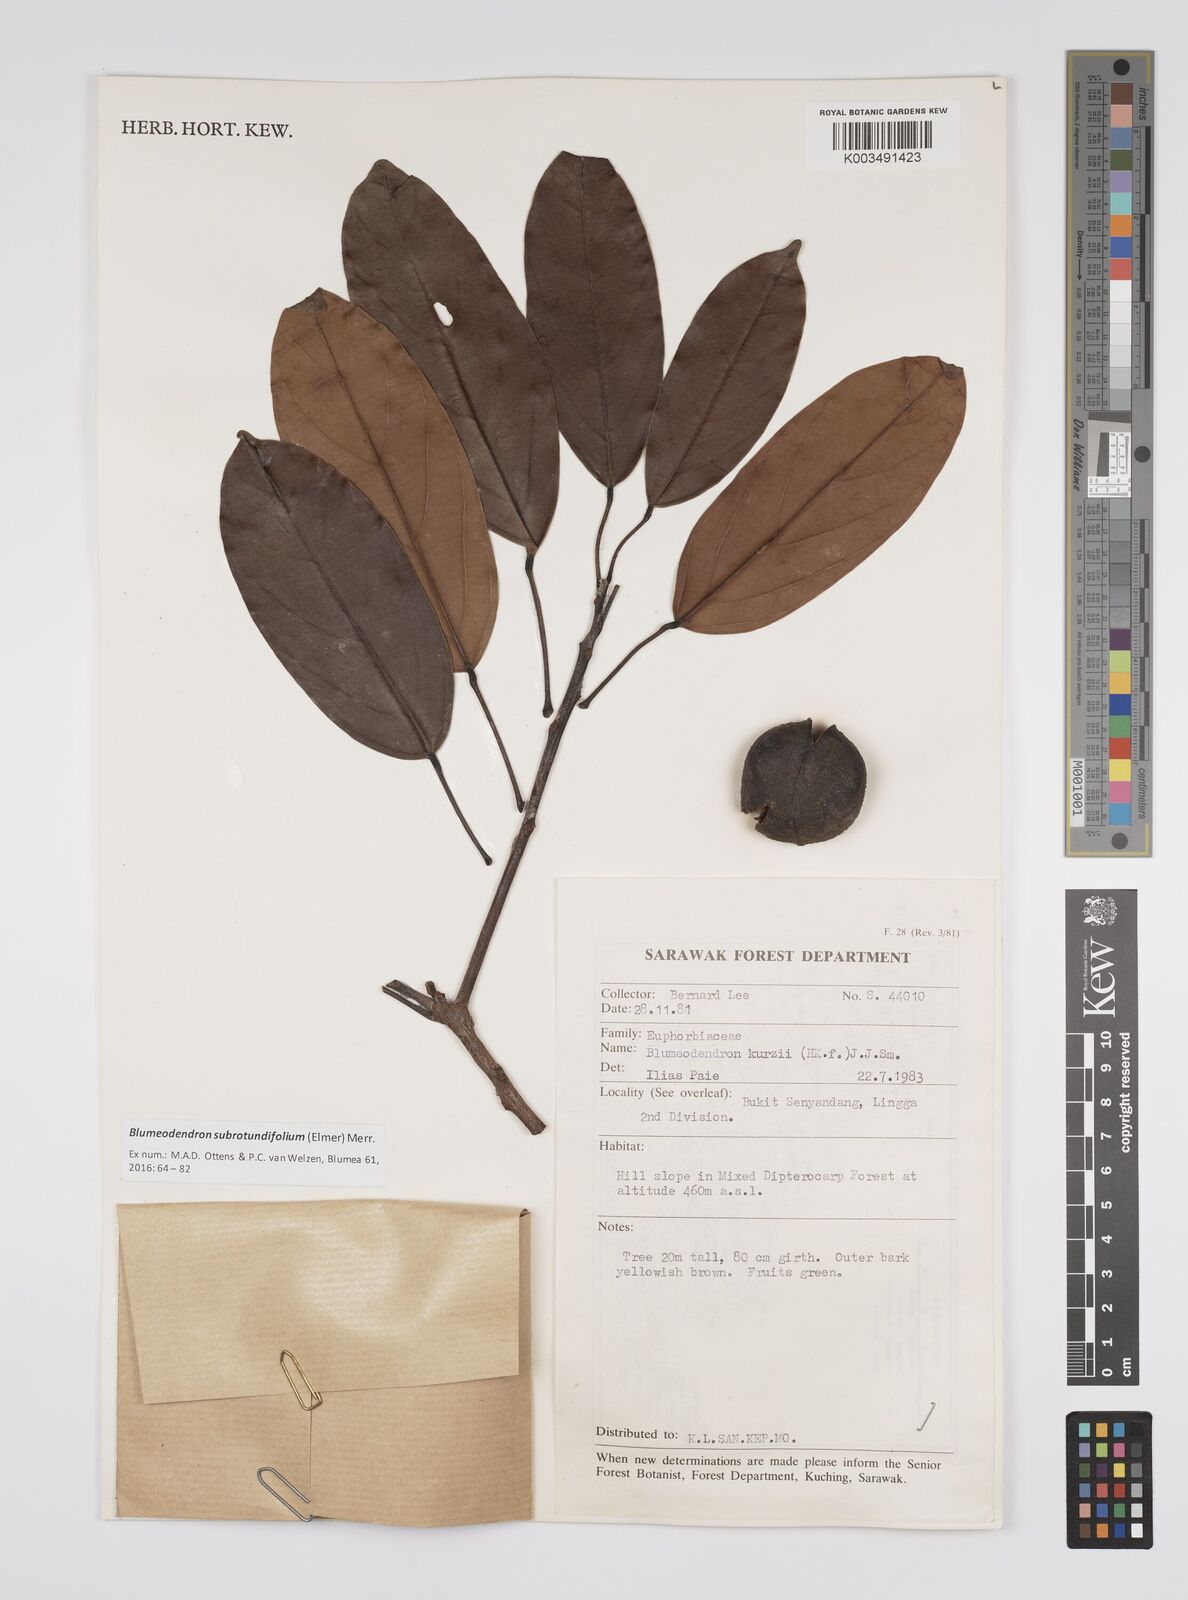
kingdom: Plantae
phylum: Tracheophyta
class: Magnoliopsida
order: Malpighiales
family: Euphorbiaceae
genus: Blumeodendron
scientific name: Blumeodendron subrotundifolium
